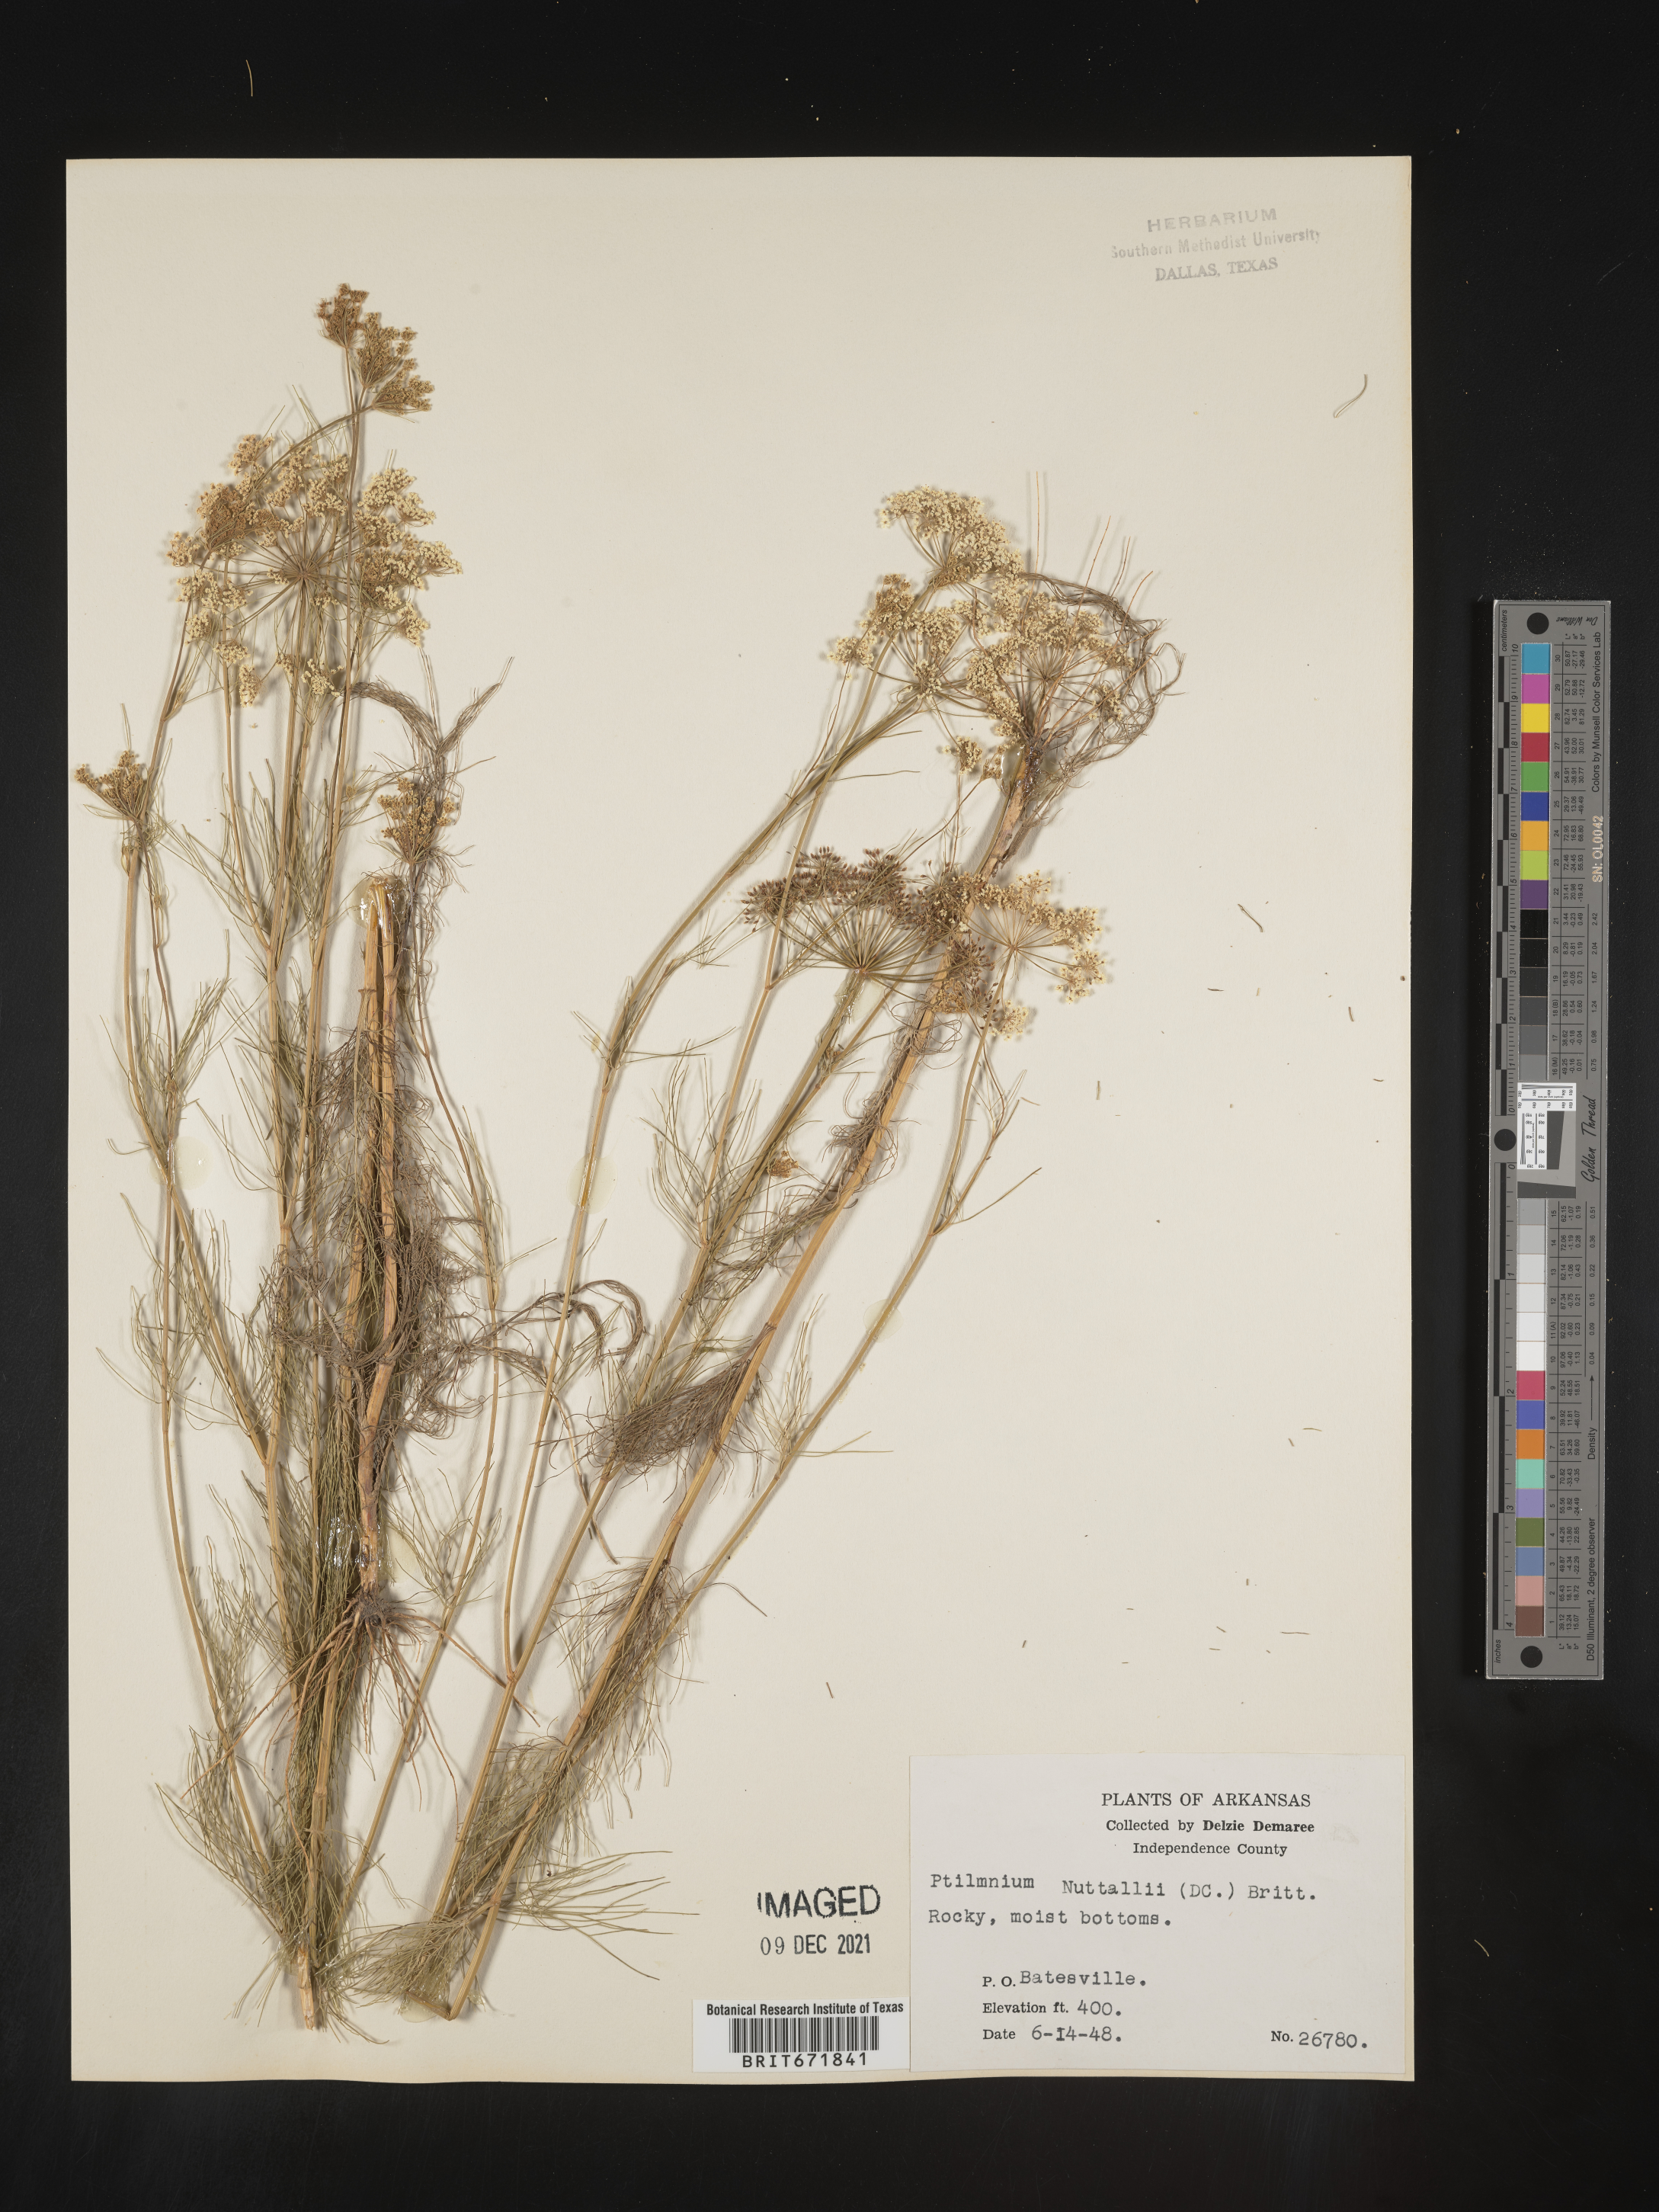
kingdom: Plantae
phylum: Tracheophyta
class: Magnoliopsida
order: Apiales
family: Apiaceae
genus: Ptilimnium
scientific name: Ptilimnium nuttallii
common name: Ozark bishop's-weed
